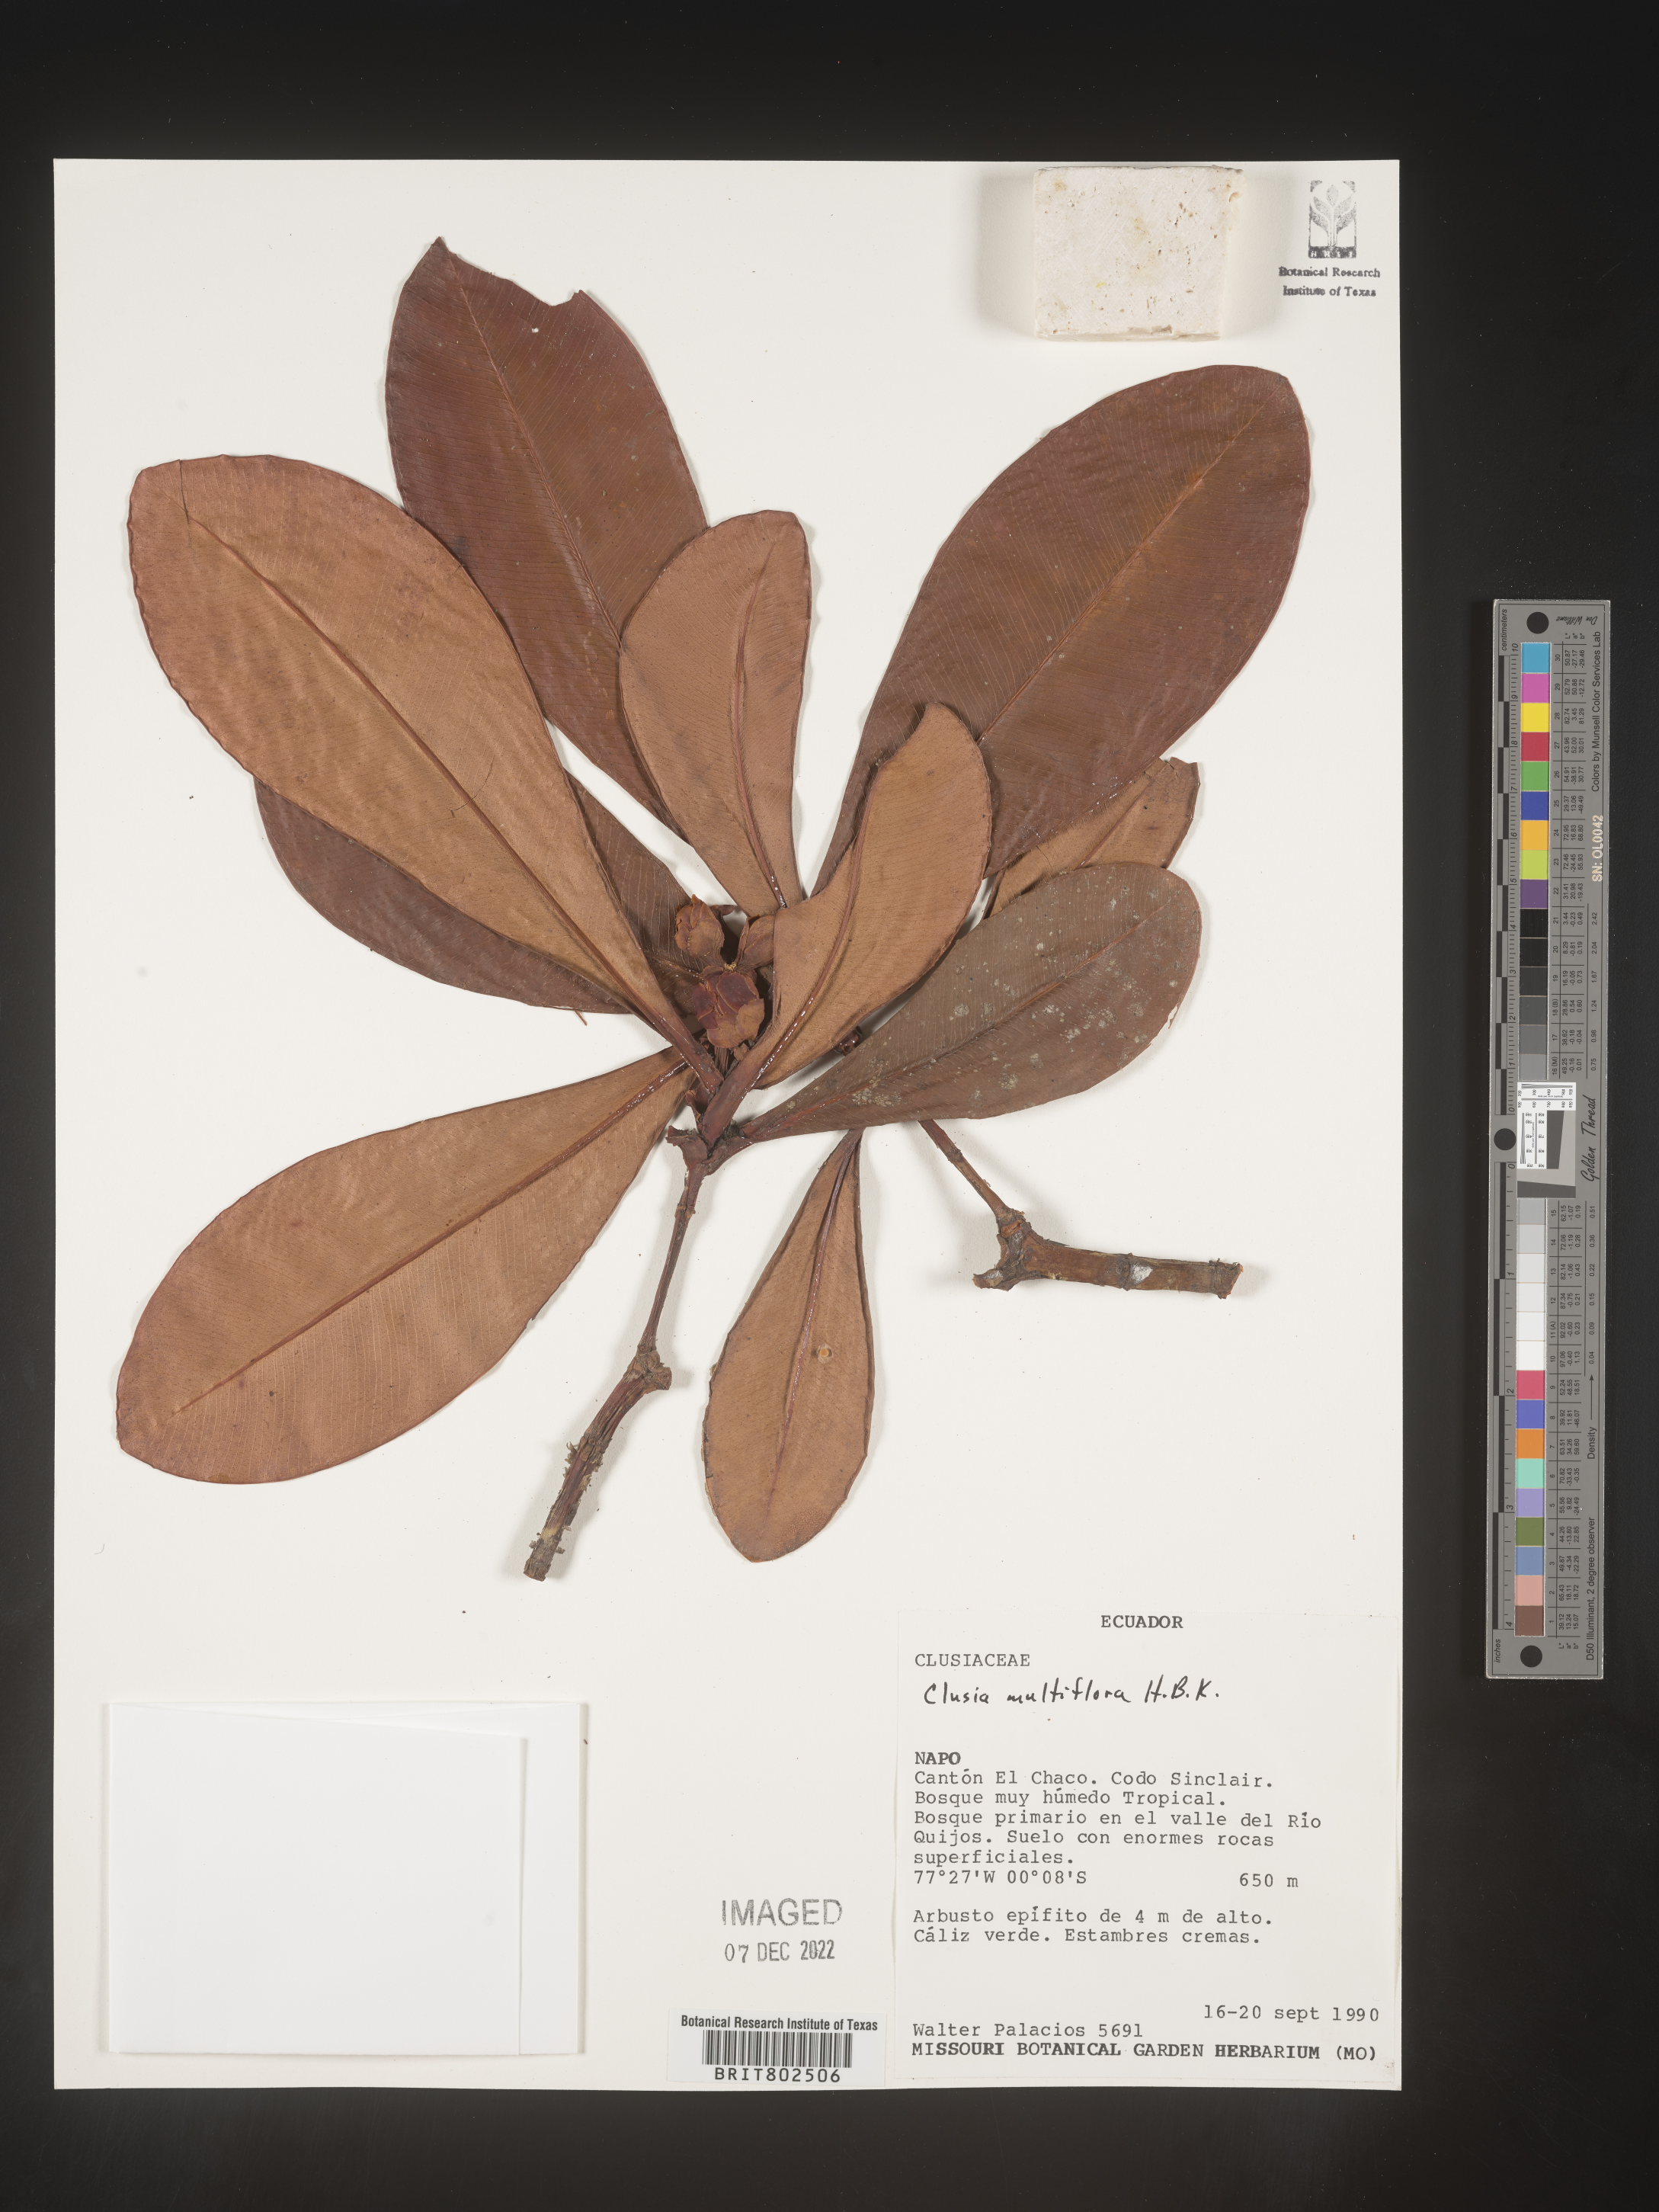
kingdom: Plantae
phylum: Tracheophyta
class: Magnoliopsida
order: Malpighiales
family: Clusiaceae
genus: Clusia
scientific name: Clusia multiflora
